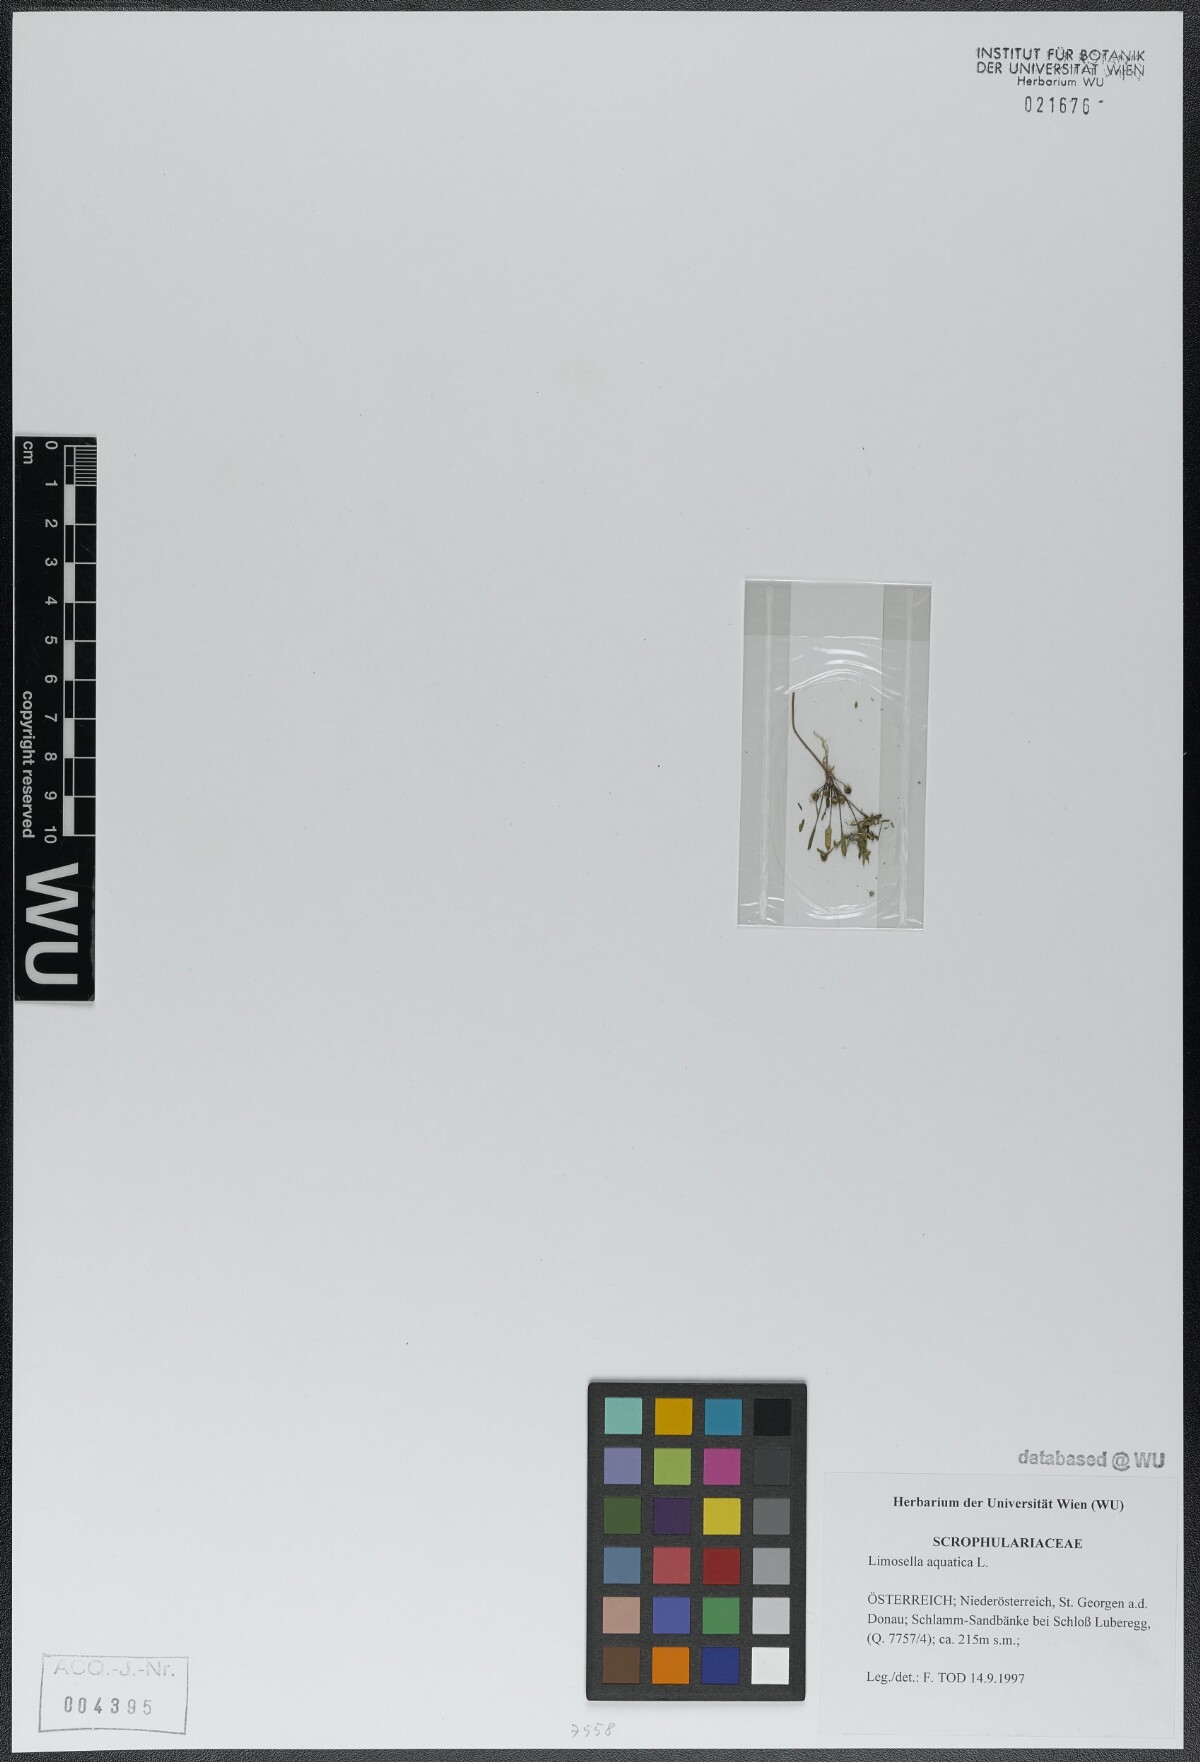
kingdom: Plantae
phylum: Tracheophyta
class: Magnoliopsida
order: Lamiales
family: Scrophulariaceae
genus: Limosella
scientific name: Limosella aquatica
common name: Mudwort
